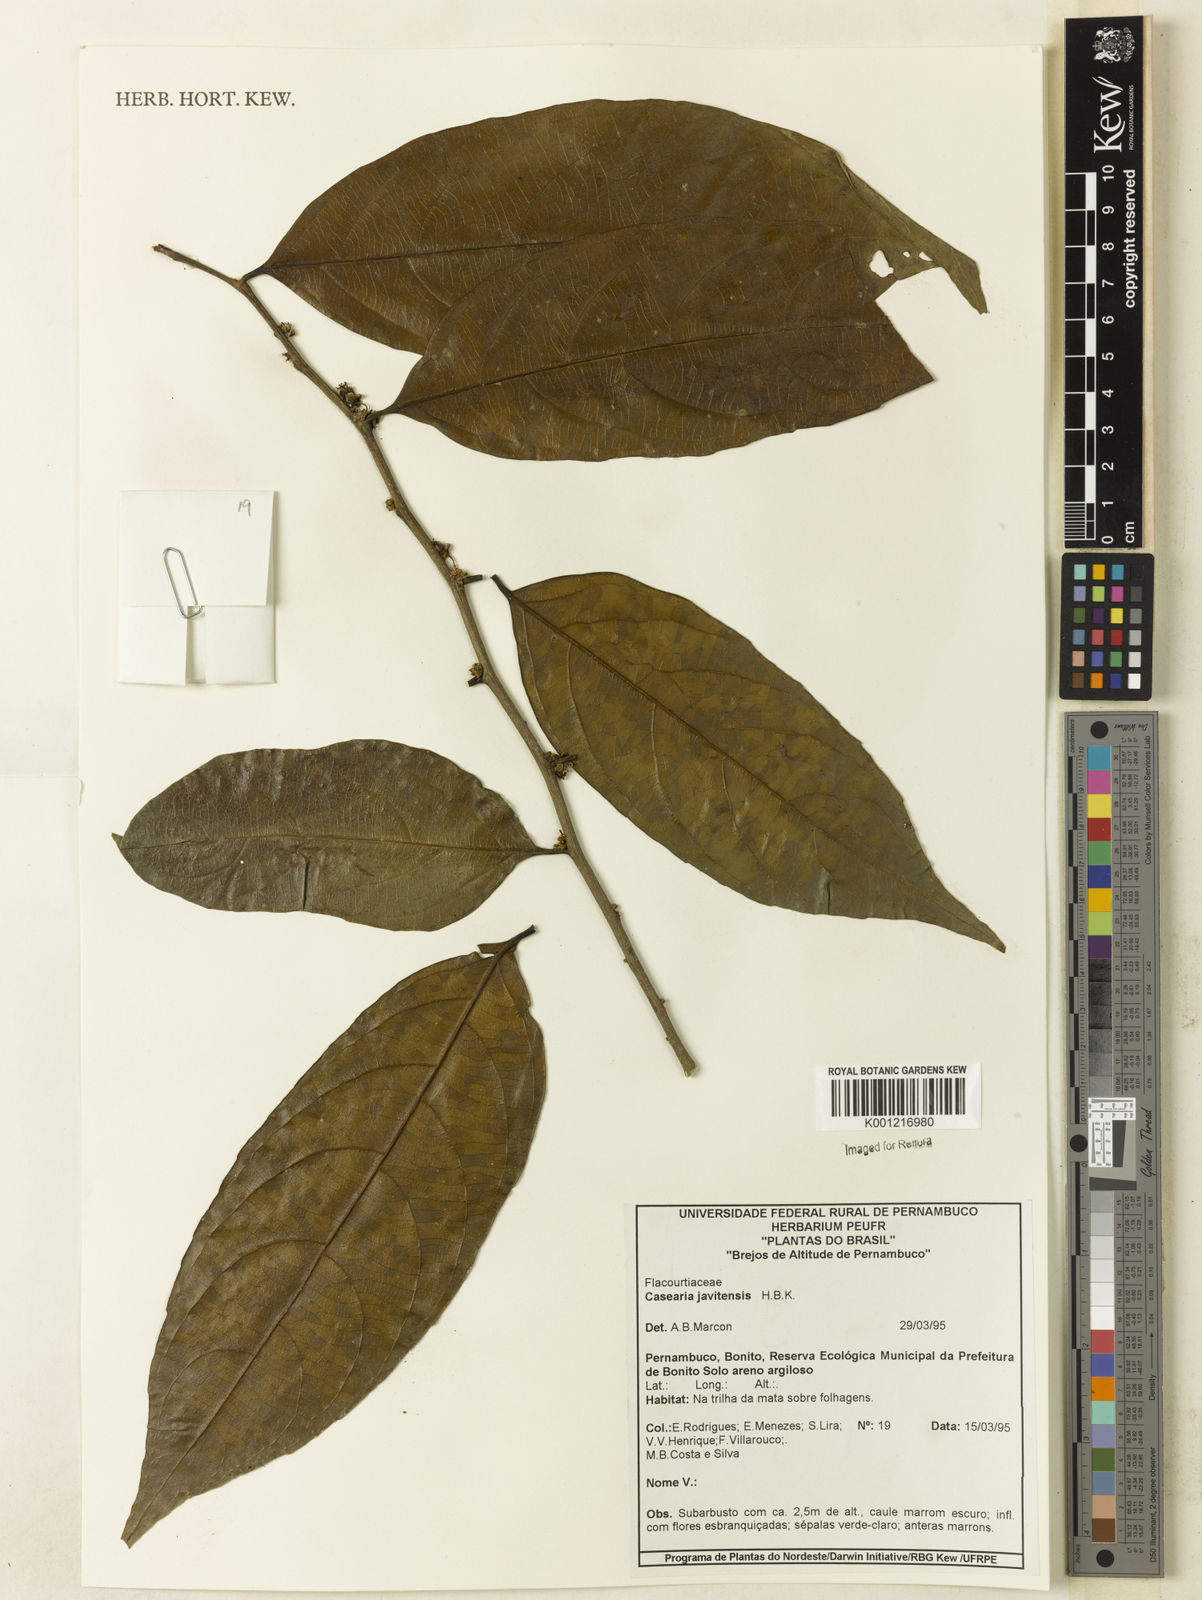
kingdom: Plantae
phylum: Tracheophyta
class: Magnoliopsida
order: Malpighiales
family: Salicaceae
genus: Piparea
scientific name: Piparea multiflora
